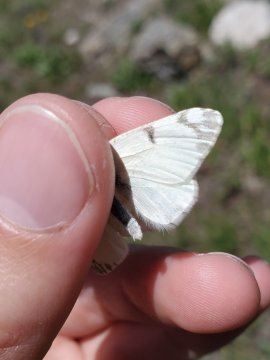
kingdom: Animalia
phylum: Arthropoda
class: Insecta
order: Lepidoptera
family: Pieridae
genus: Euchloe
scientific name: Euchloe ausonides
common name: Large Marble
